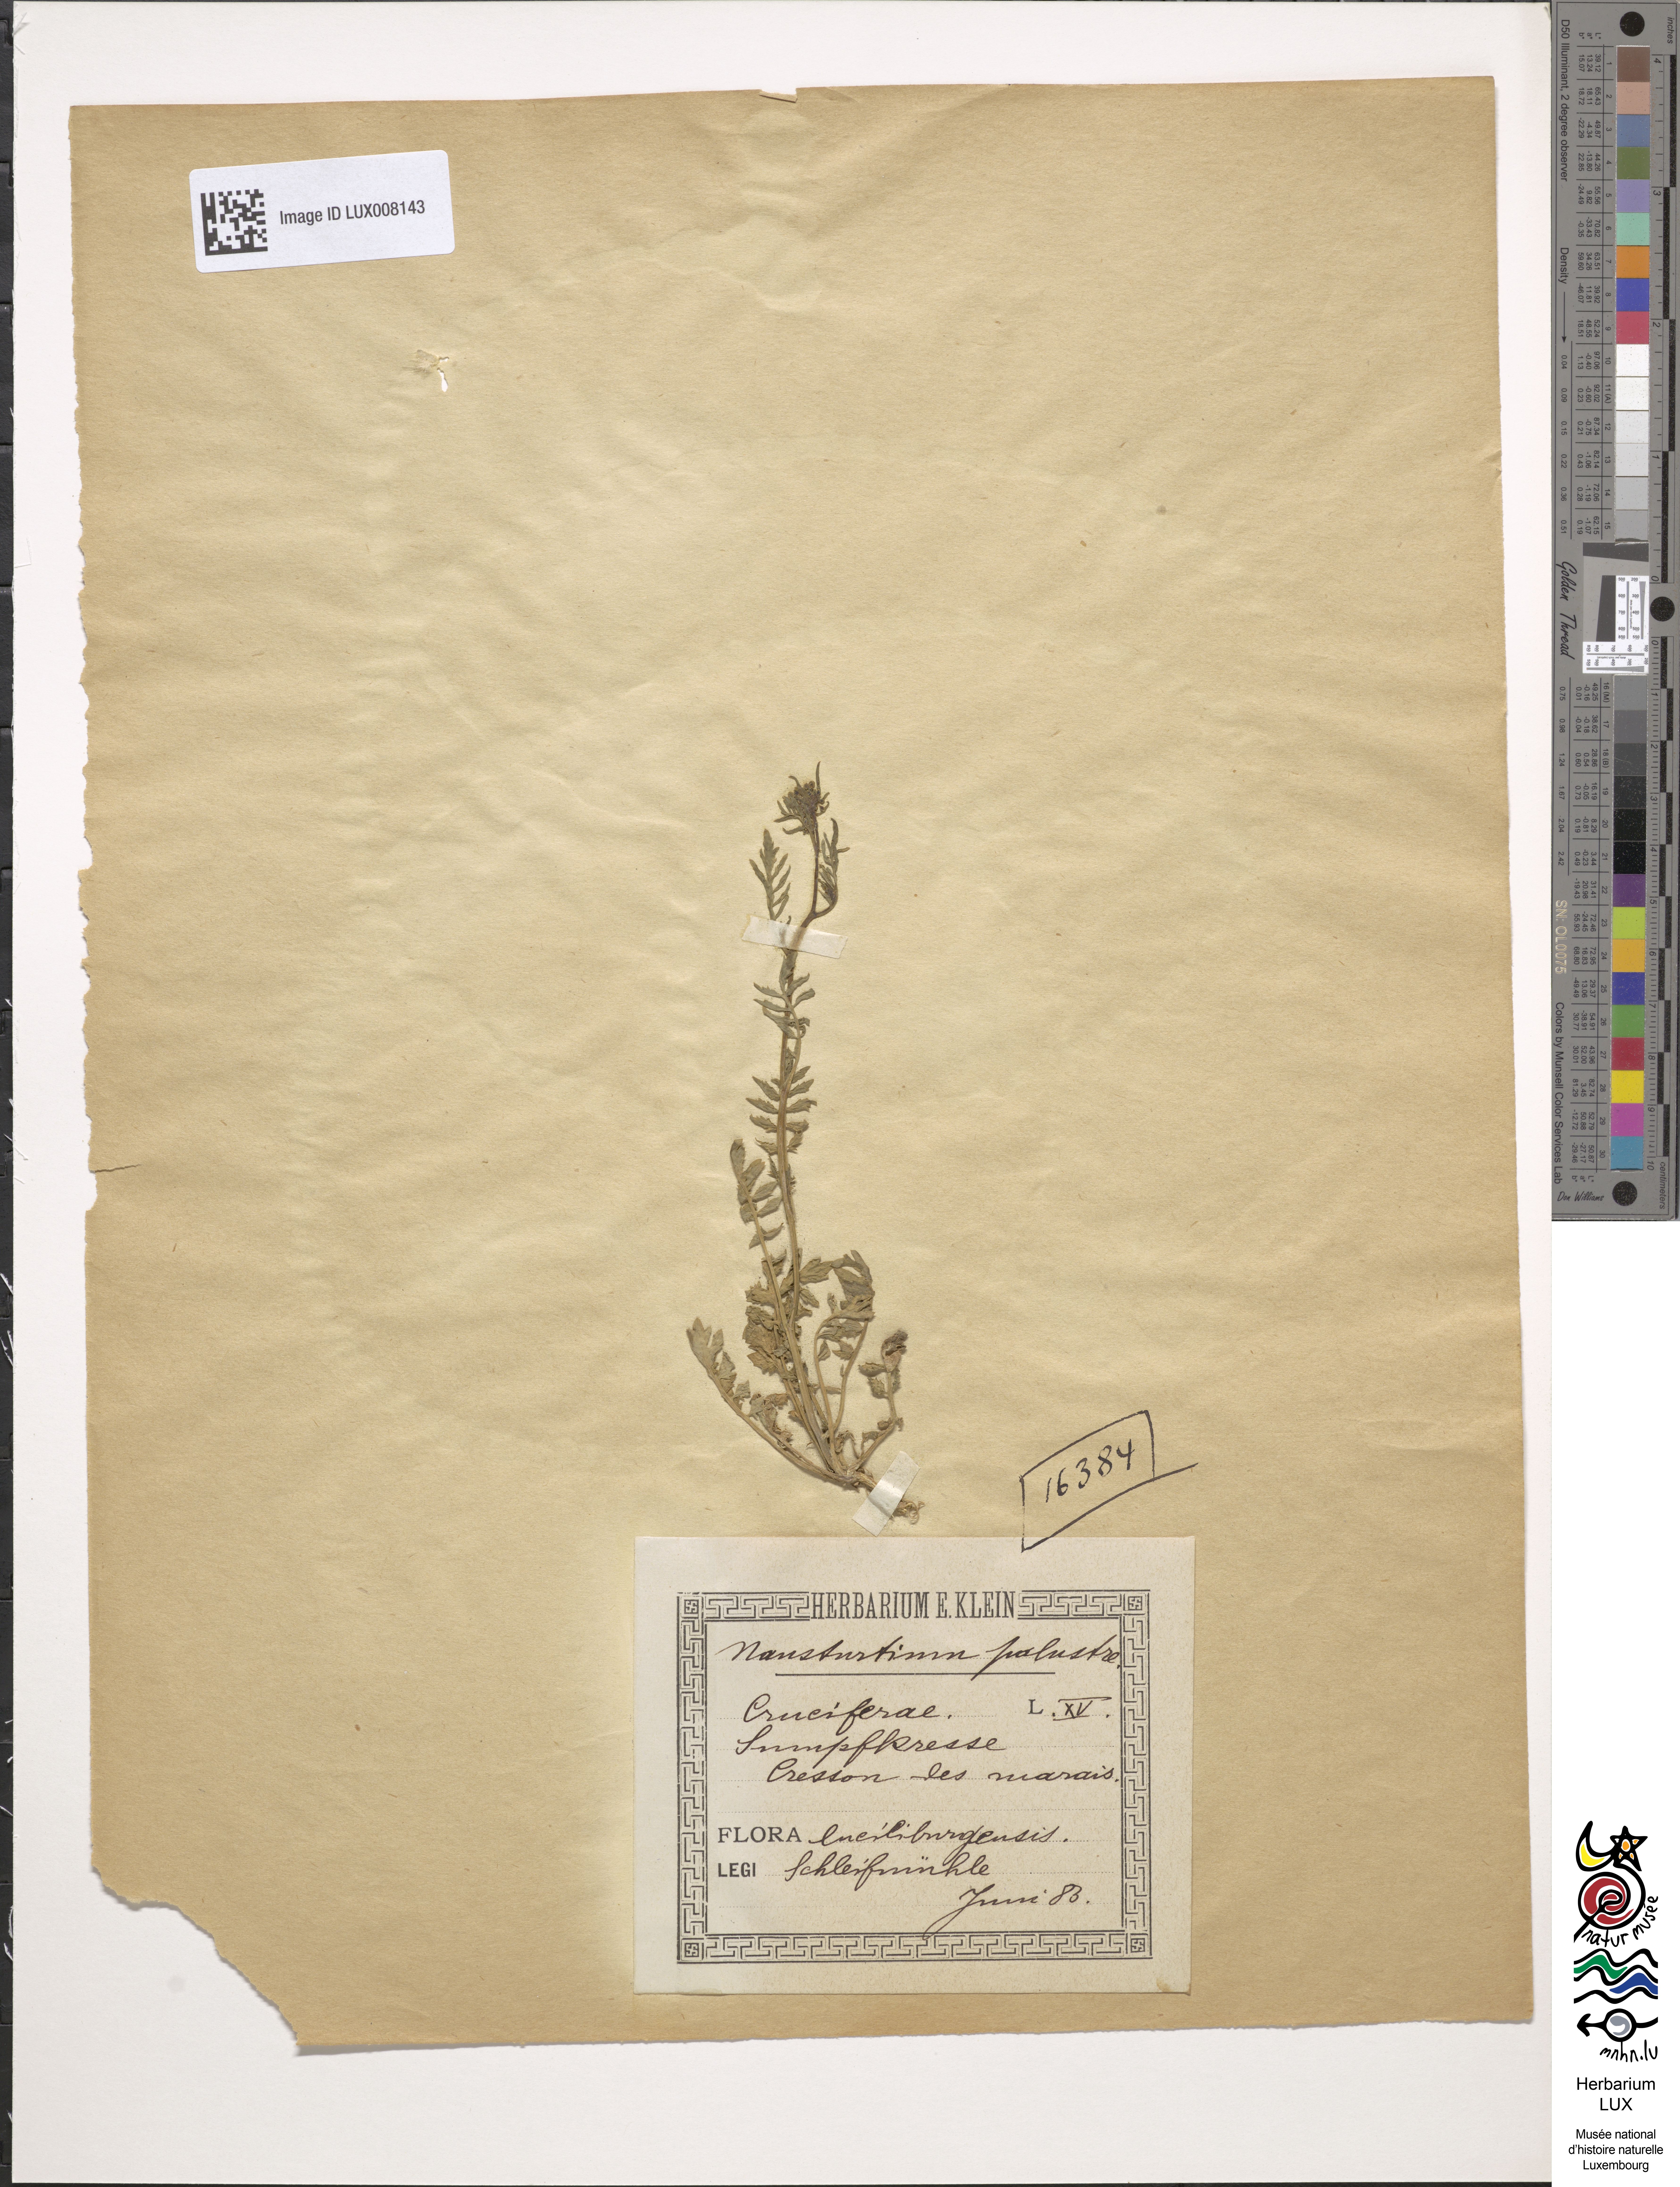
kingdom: Plantae
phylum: Tracheophyta
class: Magnoliopsida
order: Brassicales
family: Brassicaceae
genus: Rorippa
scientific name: Rorippa islandica
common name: Marsh cress
